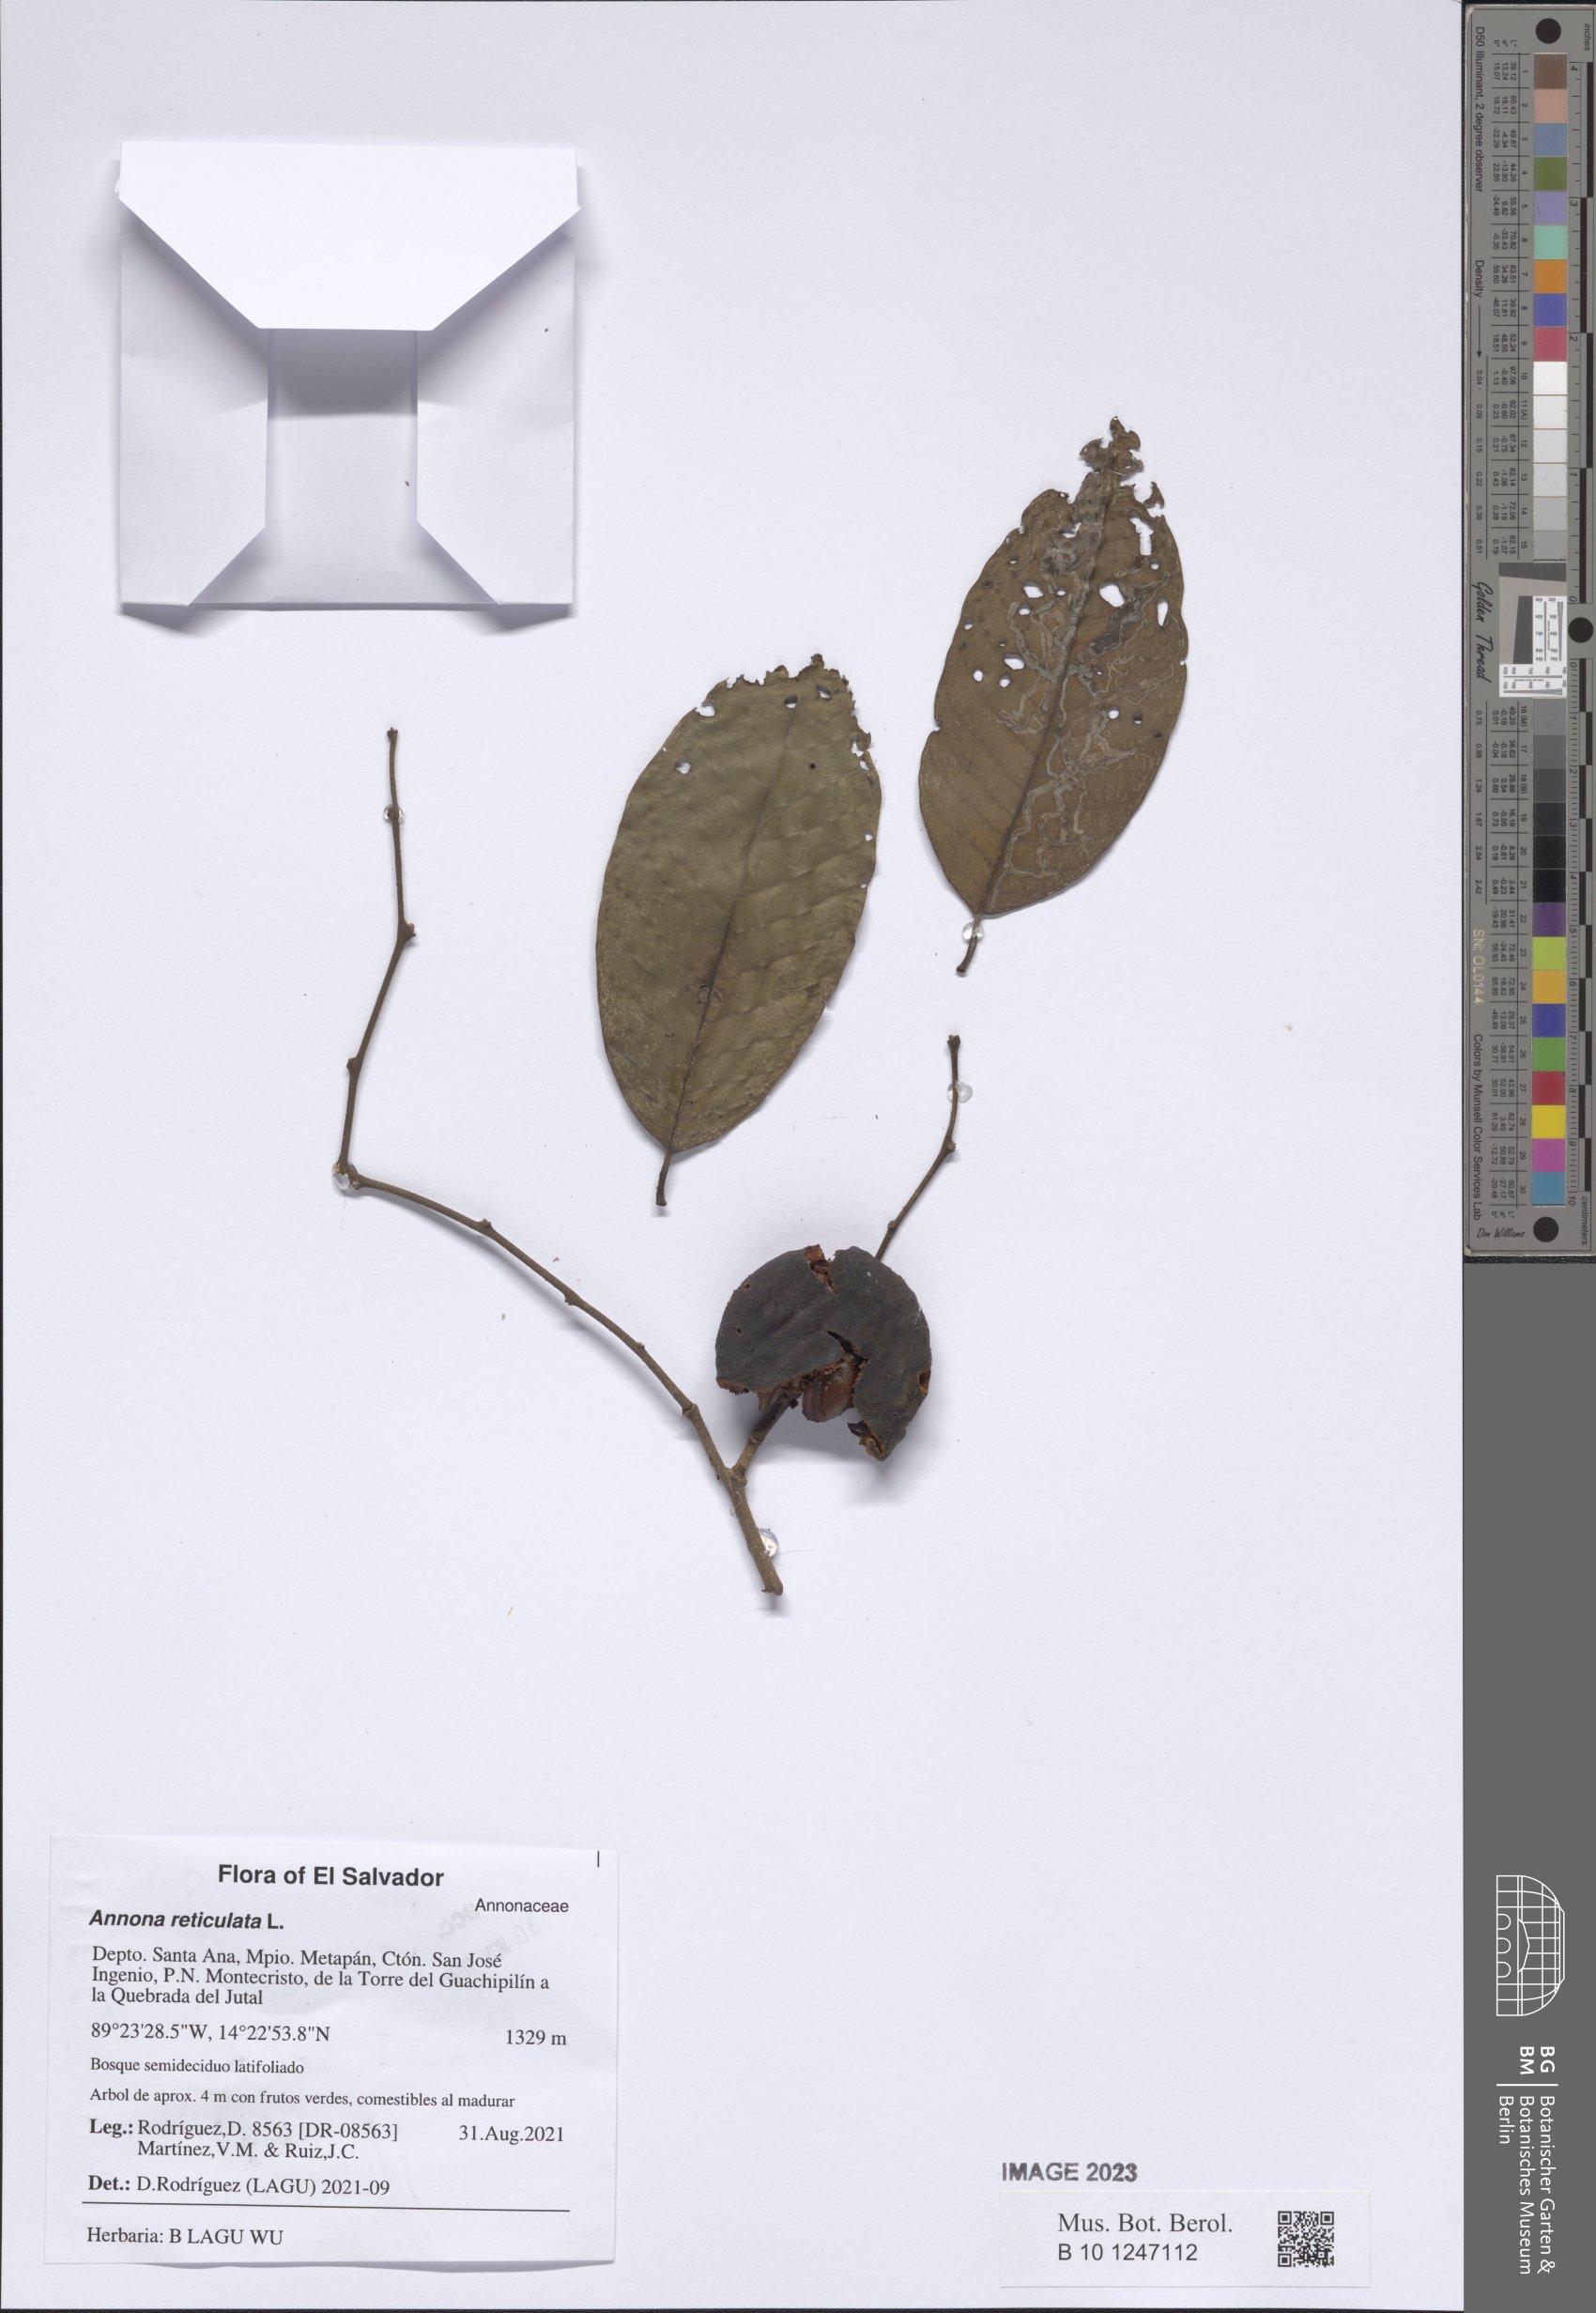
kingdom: Plantae
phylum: Tracheophyta
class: Magnoliopsida
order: Magnoliales
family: Annonaceae
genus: Annona
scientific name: Annona reticulata
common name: Custard apple
